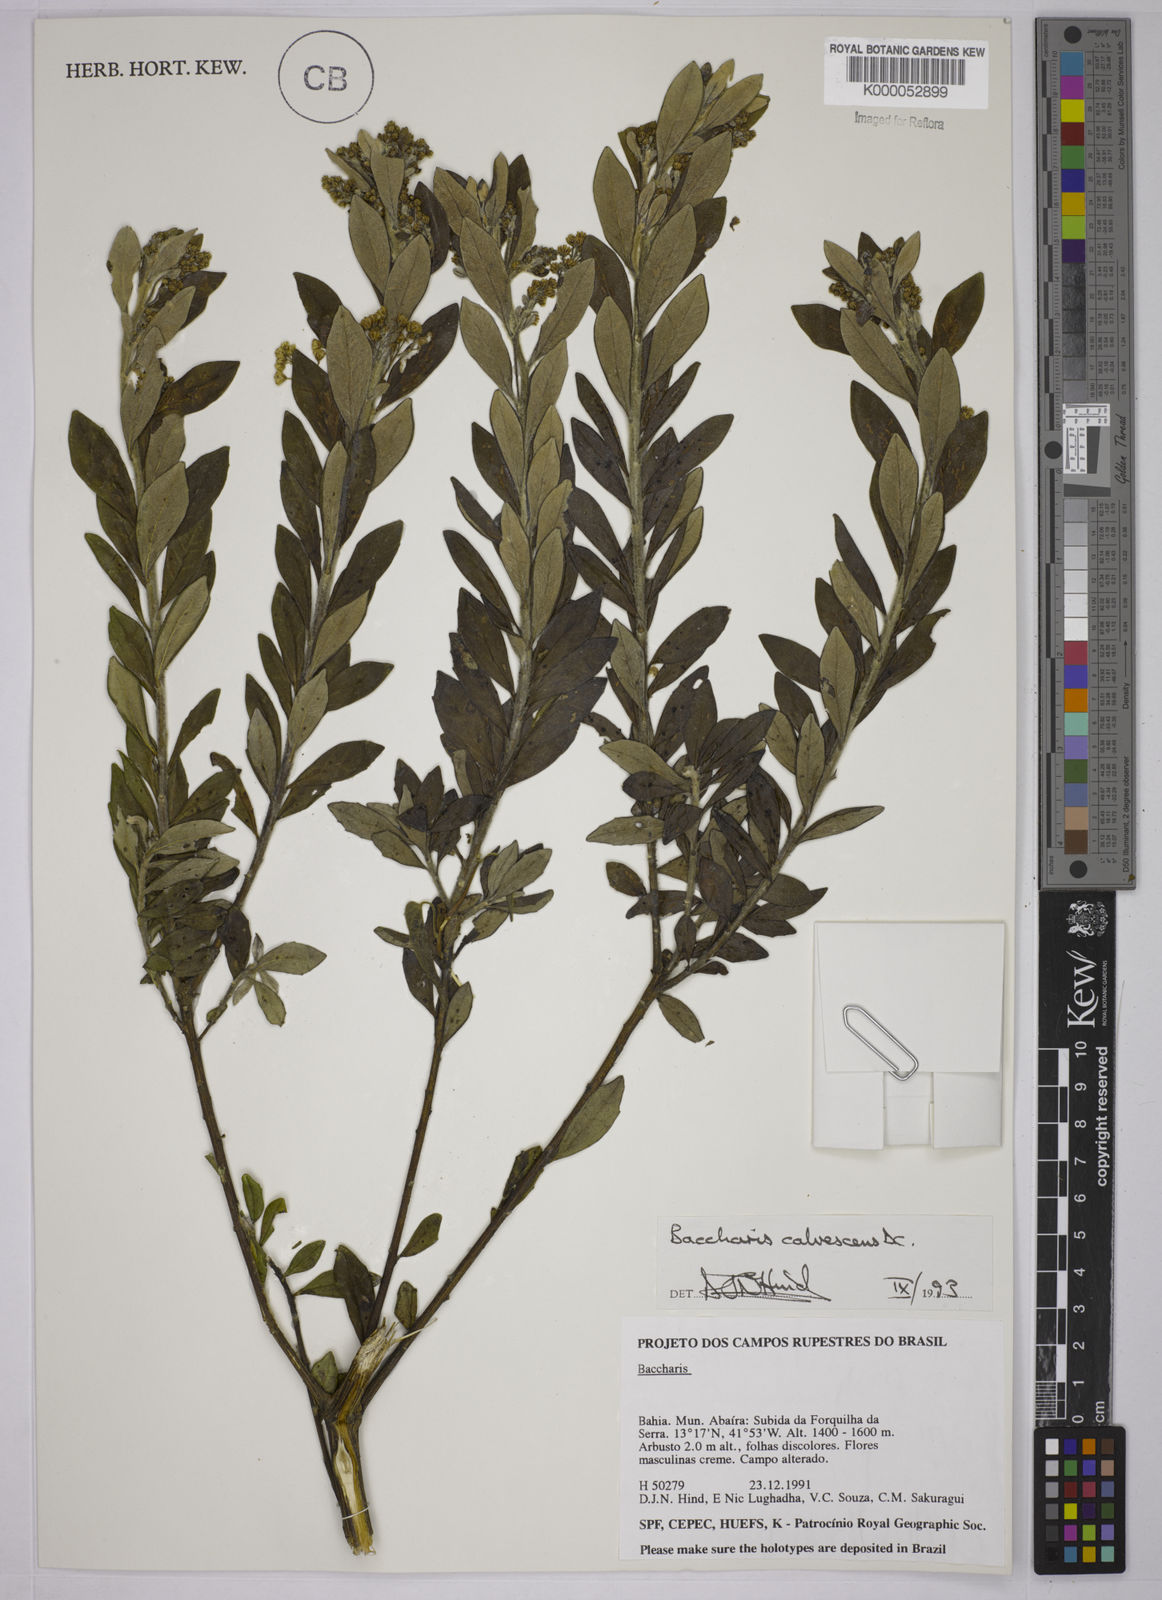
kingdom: Plantae
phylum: Tracheophyta
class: Magnoliopsida
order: Asterales
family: Asteraceae
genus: Baccharis
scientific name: Baccharis calvescens
